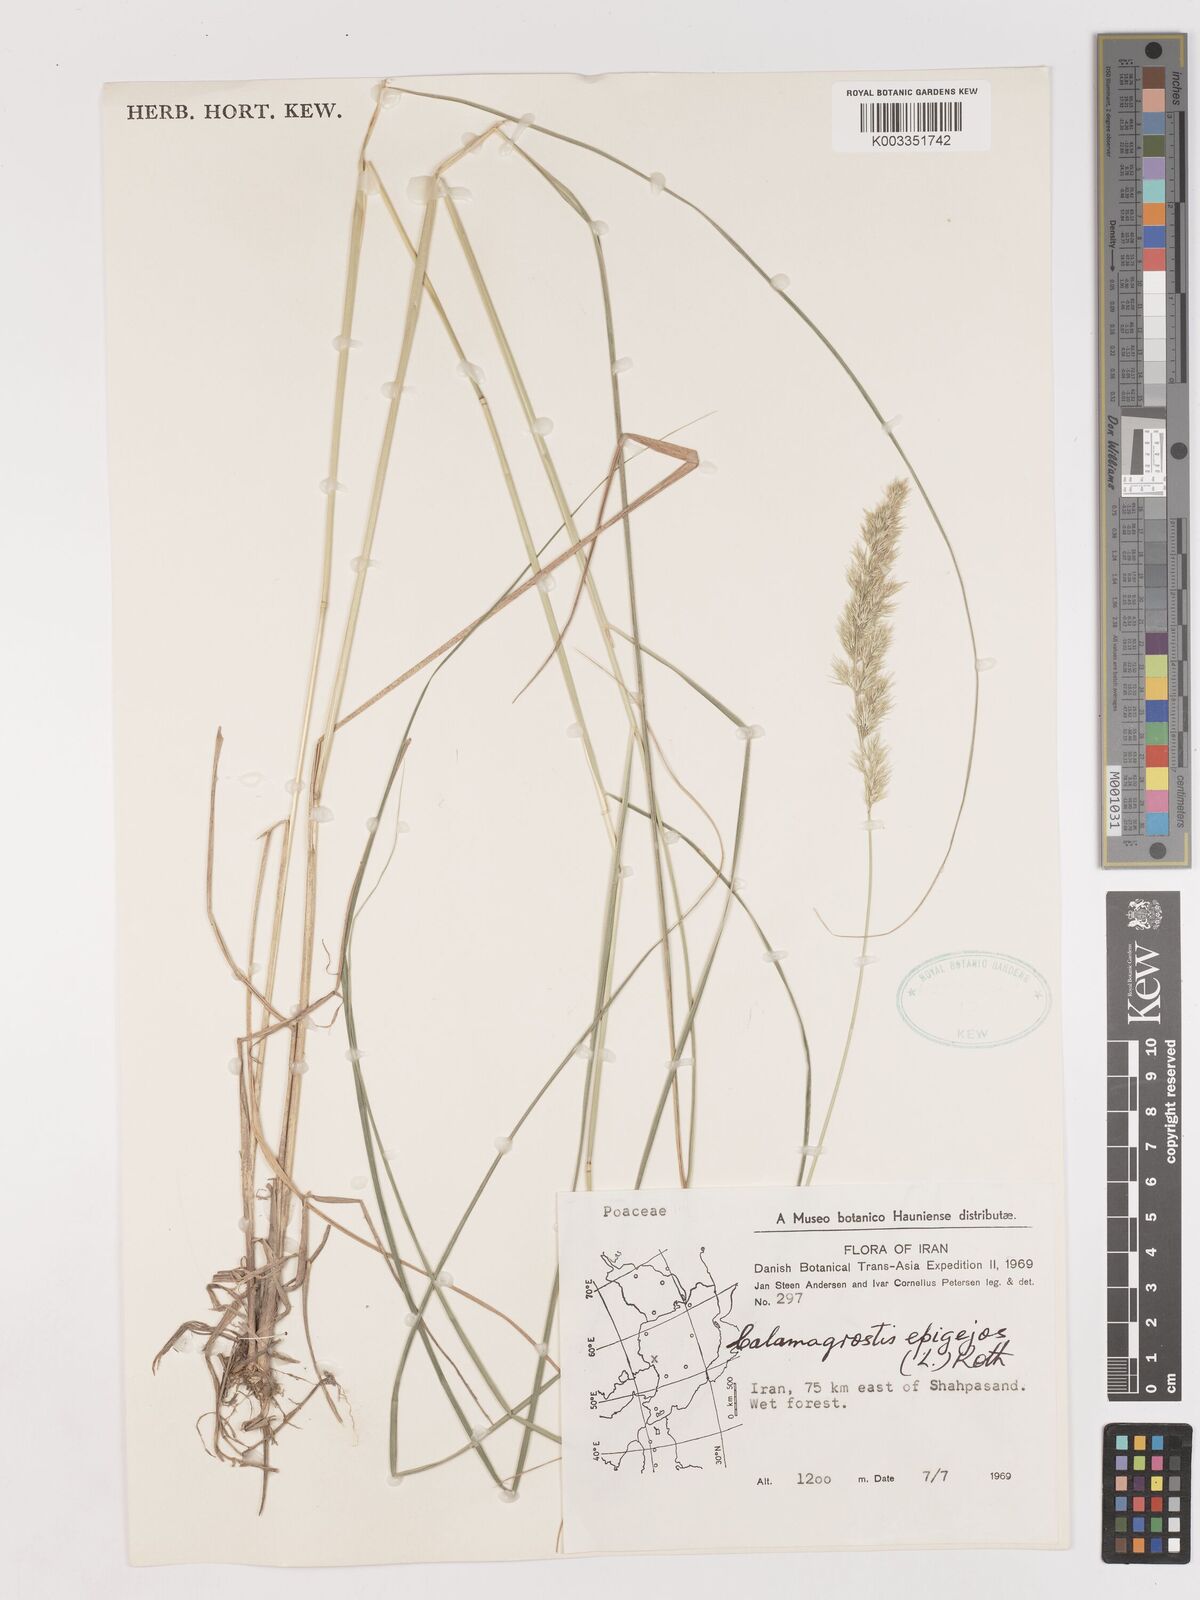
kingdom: Plantae
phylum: Tracheophyta
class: Liliopsida
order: Poales
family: Poaceae
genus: Calamagrostis
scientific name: Calamagrostis
